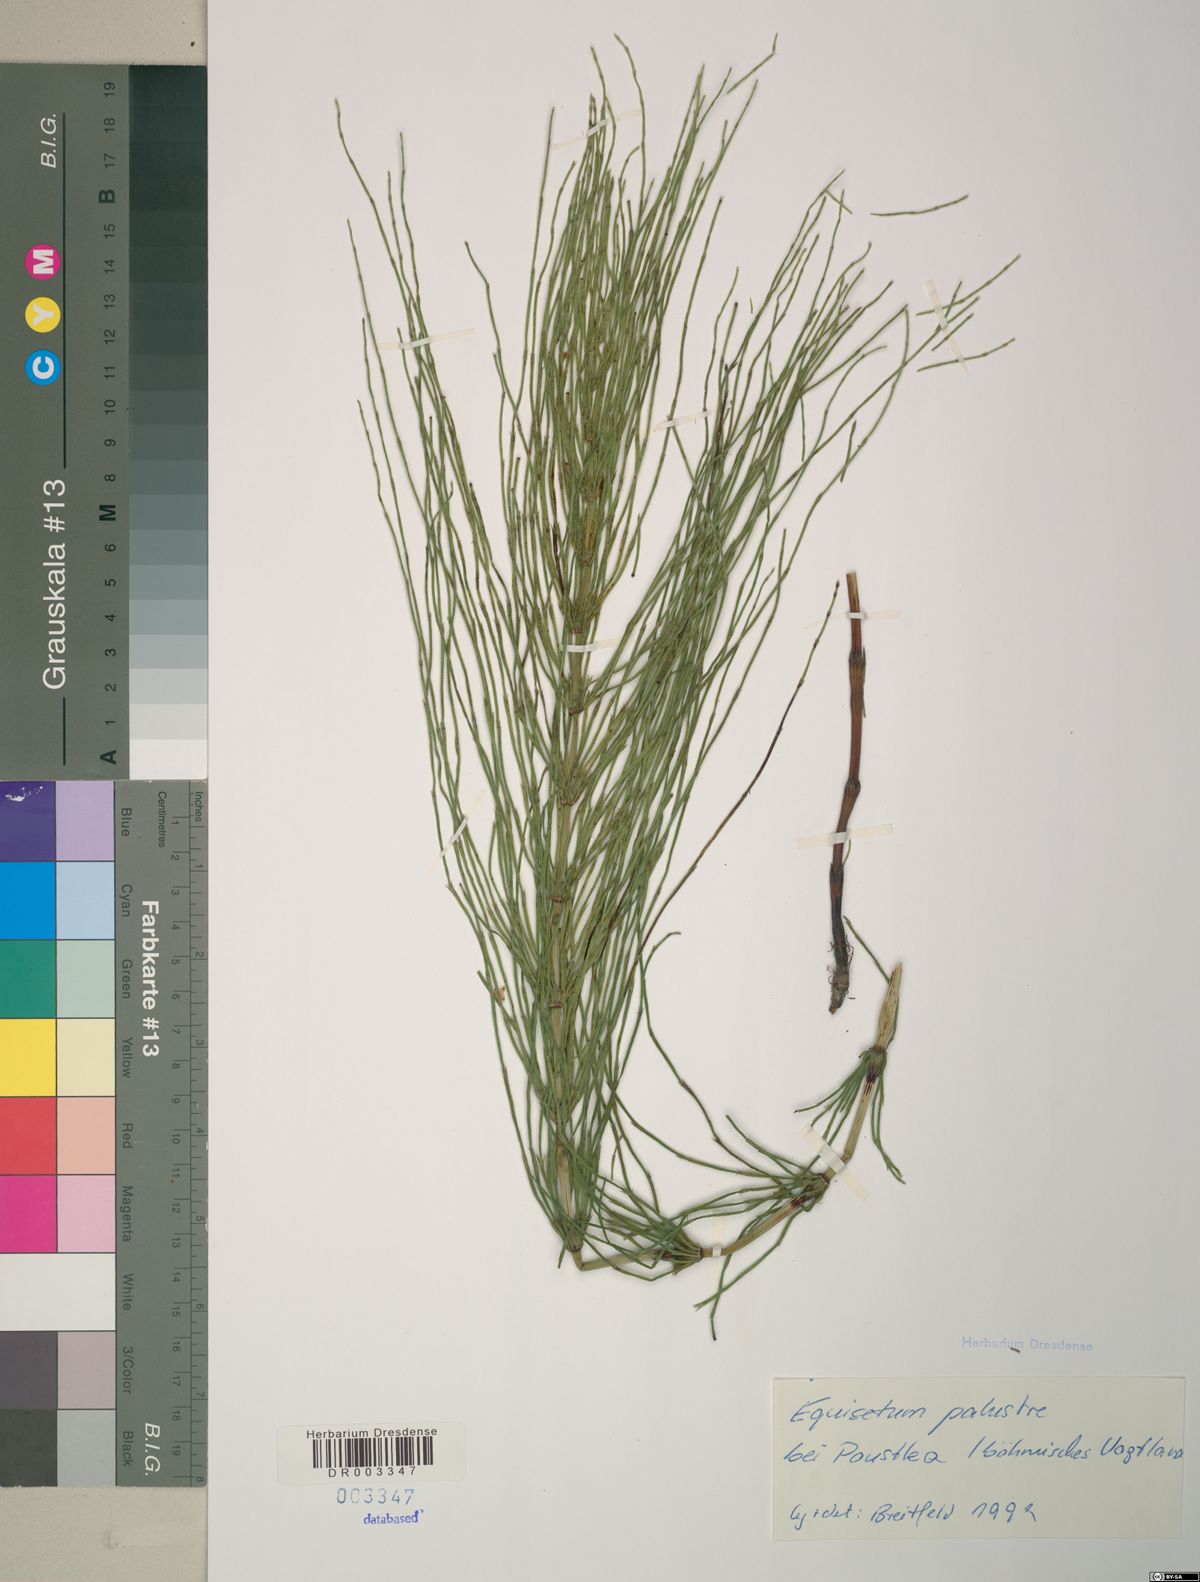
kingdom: Plantae
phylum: Tracheophyta
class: Polypodiopsida
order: Equisetales
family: Equisetaceae
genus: Equisetum
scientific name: Equisetum palustre
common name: Marsh horsetail
